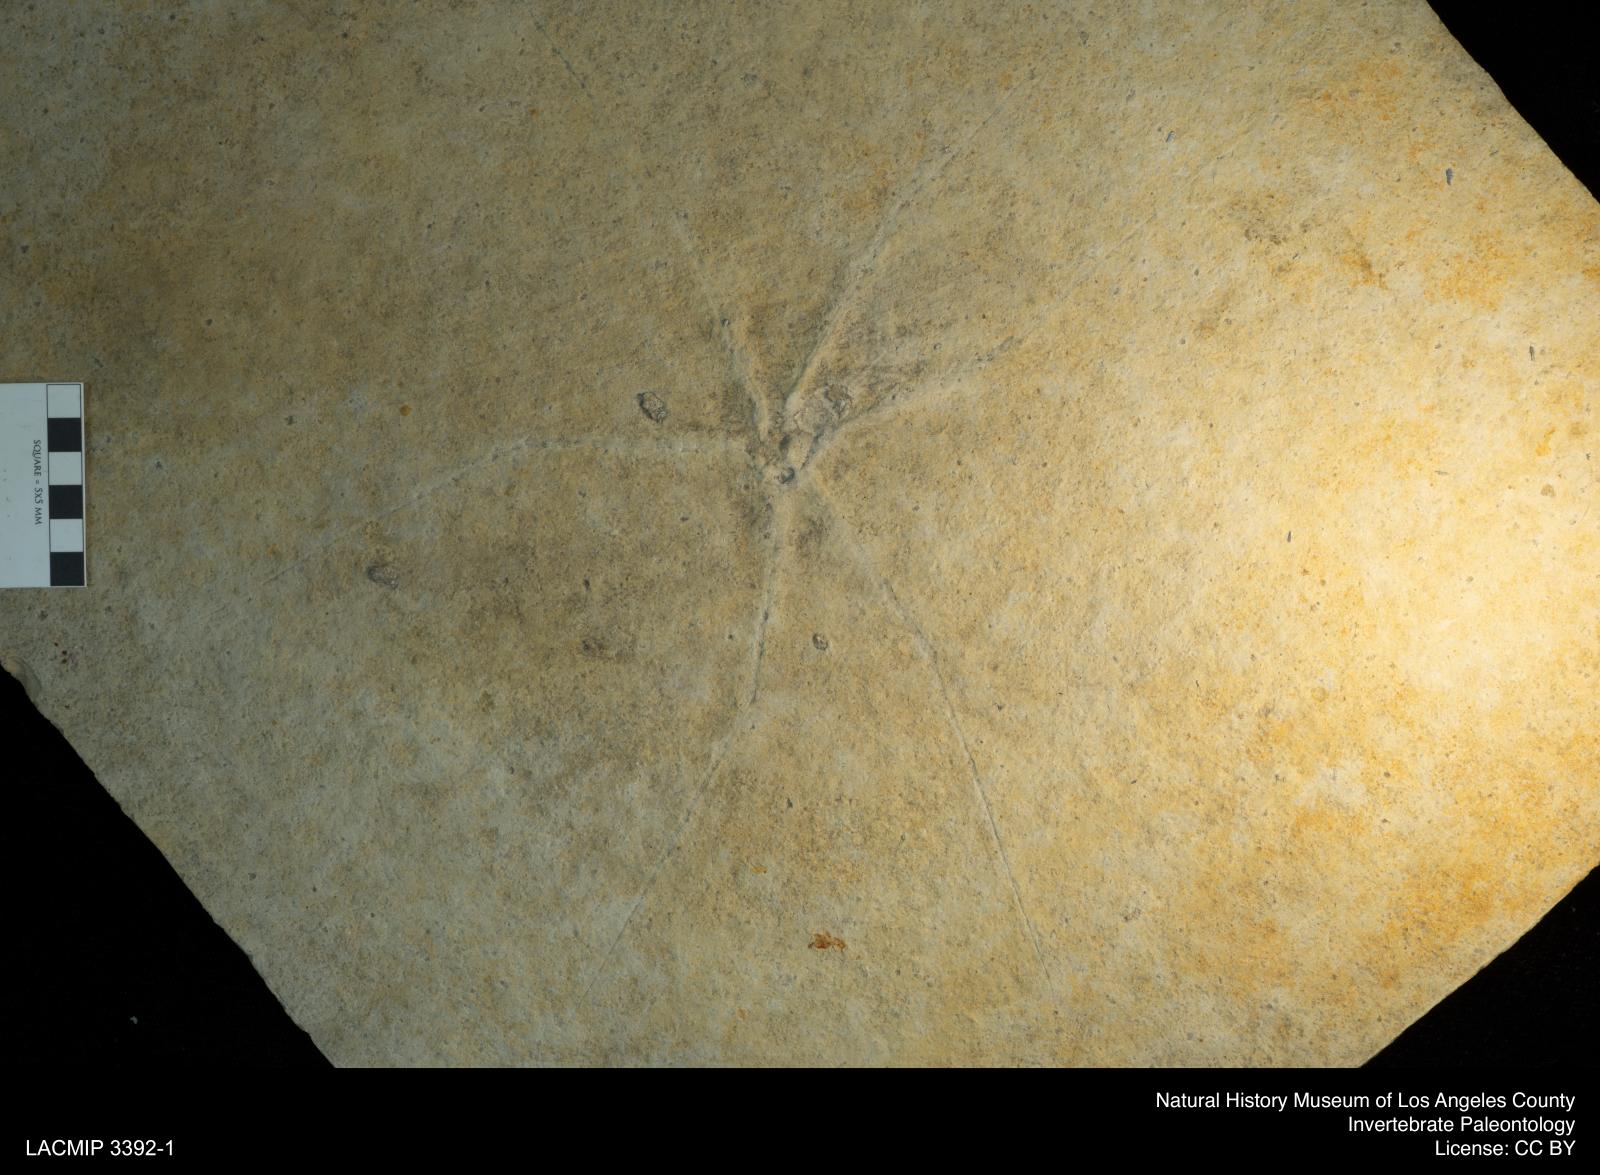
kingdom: Animalia
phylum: Arthropoda
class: Insecta
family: Chresmodidae
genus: Chresmoda
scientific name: Chresmoda obscura
